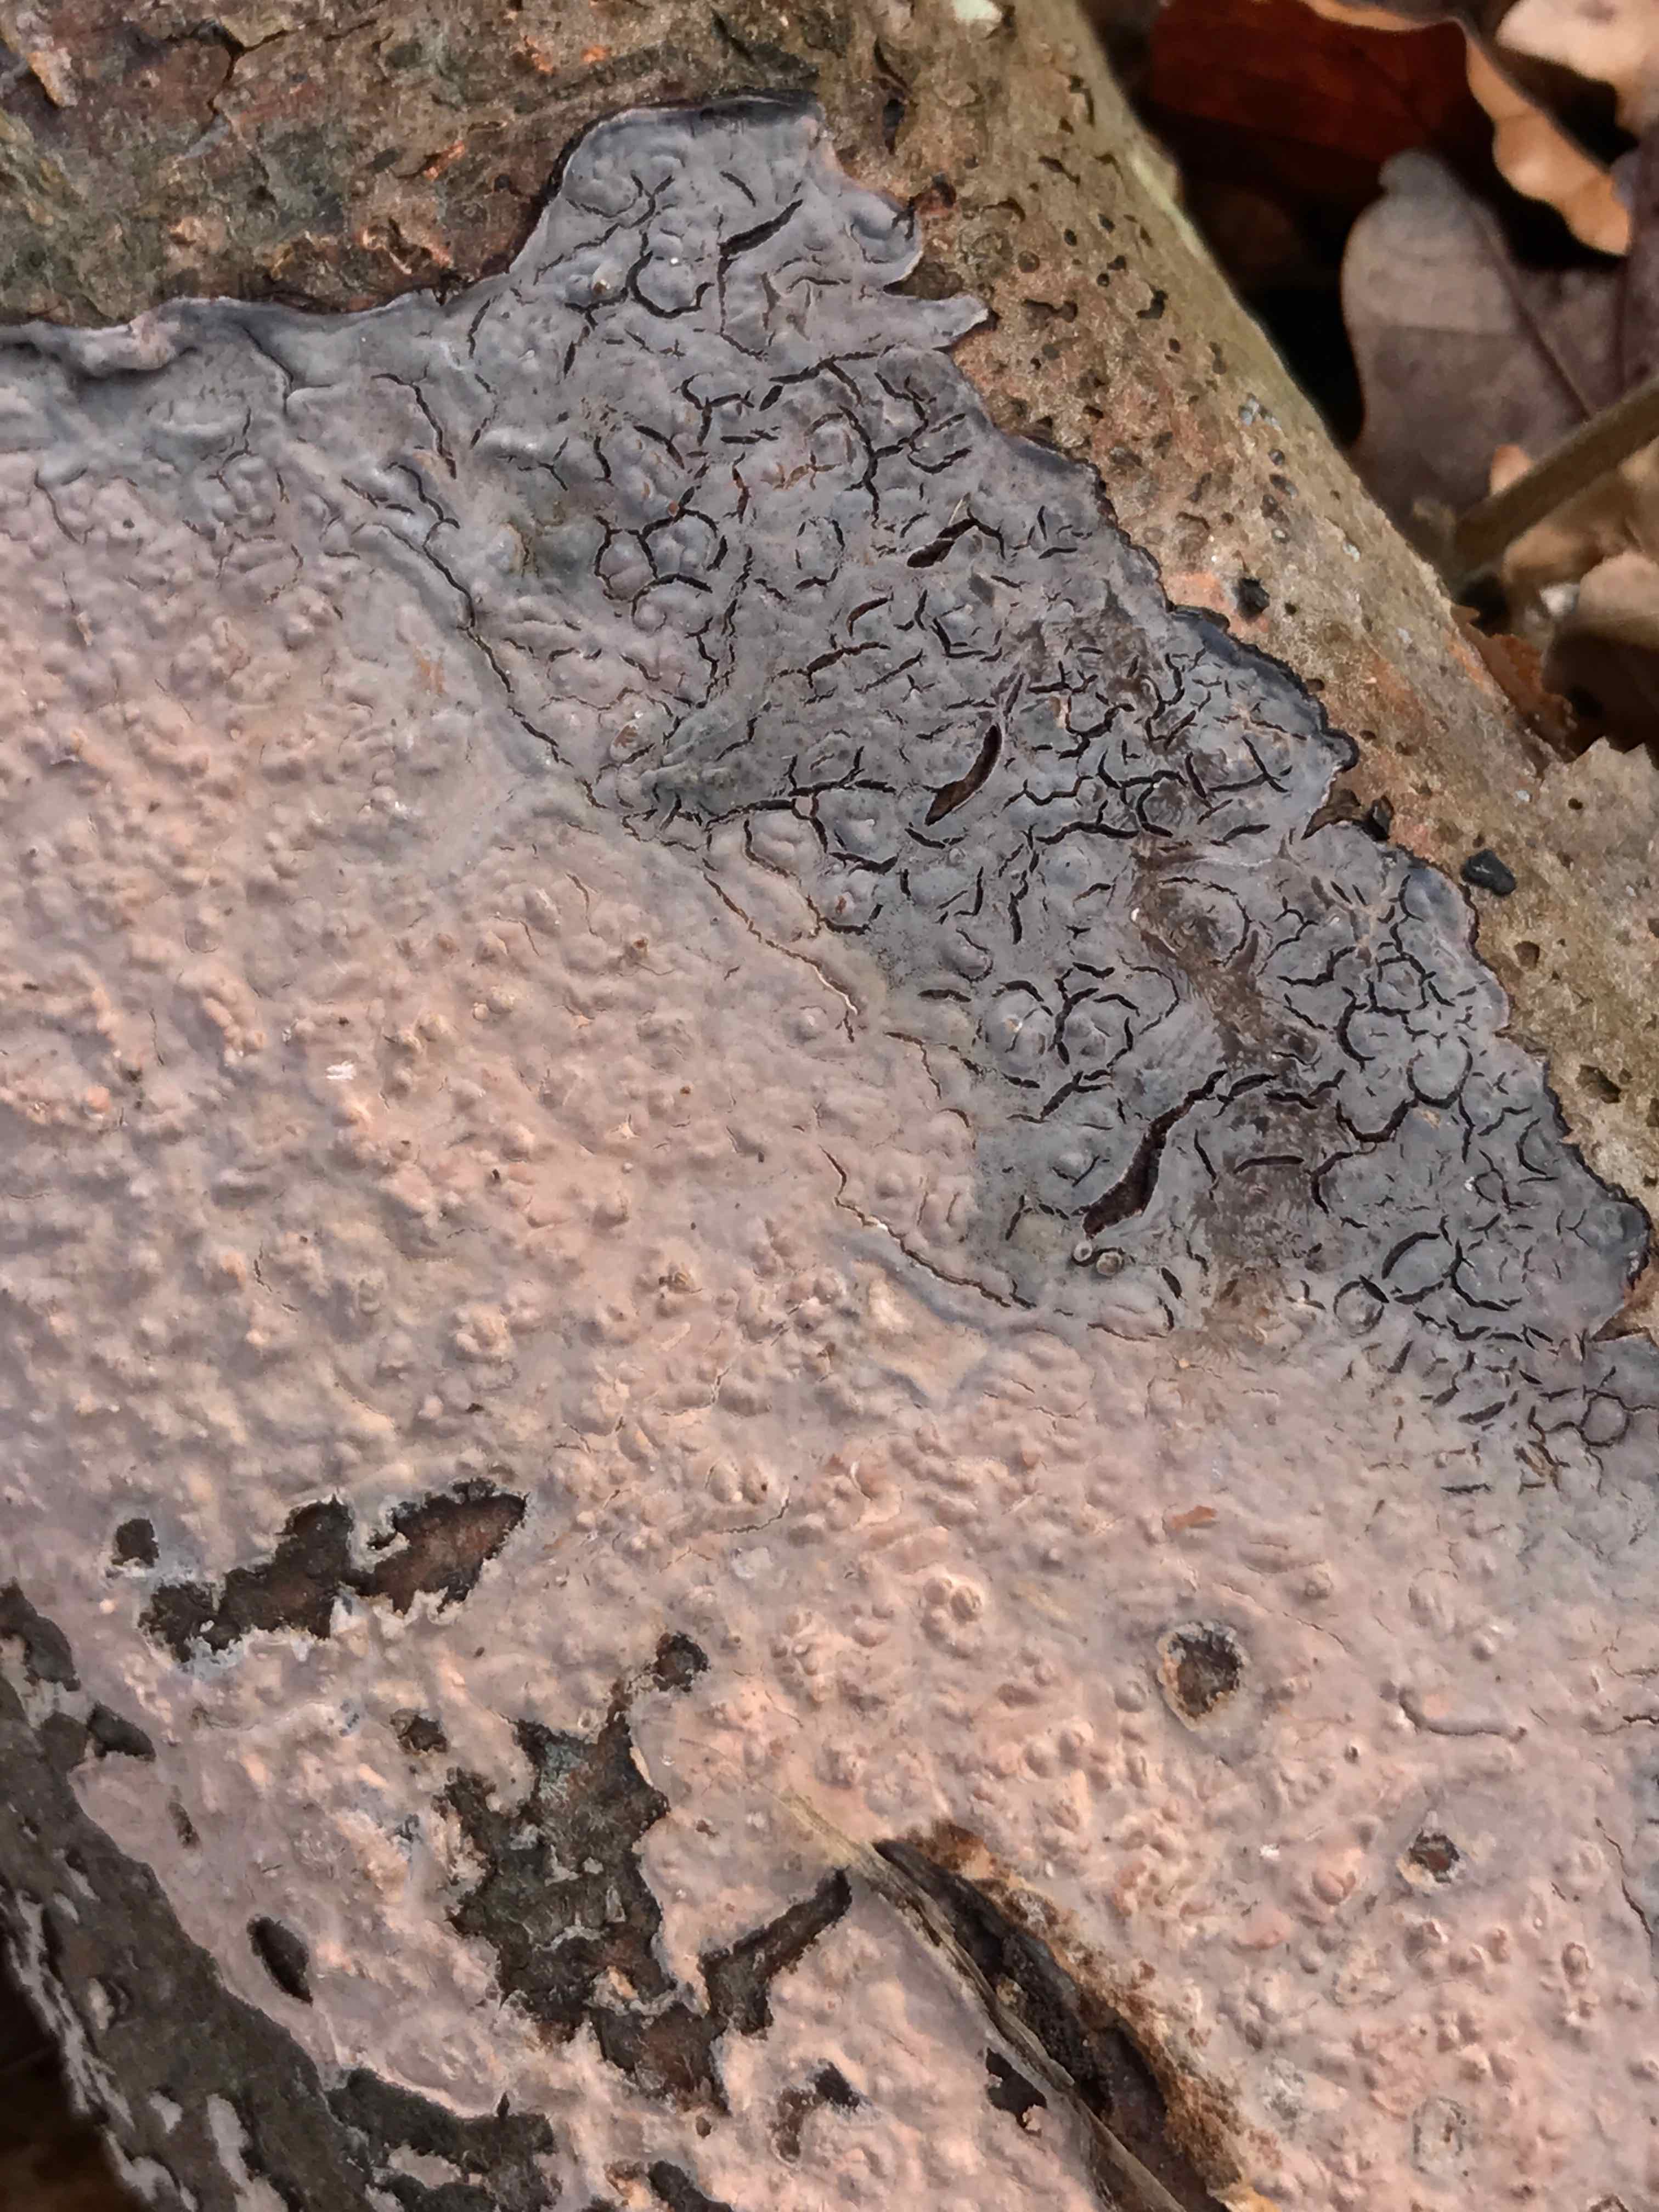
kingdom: Fungi
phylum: Basidiomycota
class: Agaricomycetes
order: Russulales
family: Peniophoraceae
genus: Peniophora
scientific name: Peniophora quercina
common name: ege-voksskind
